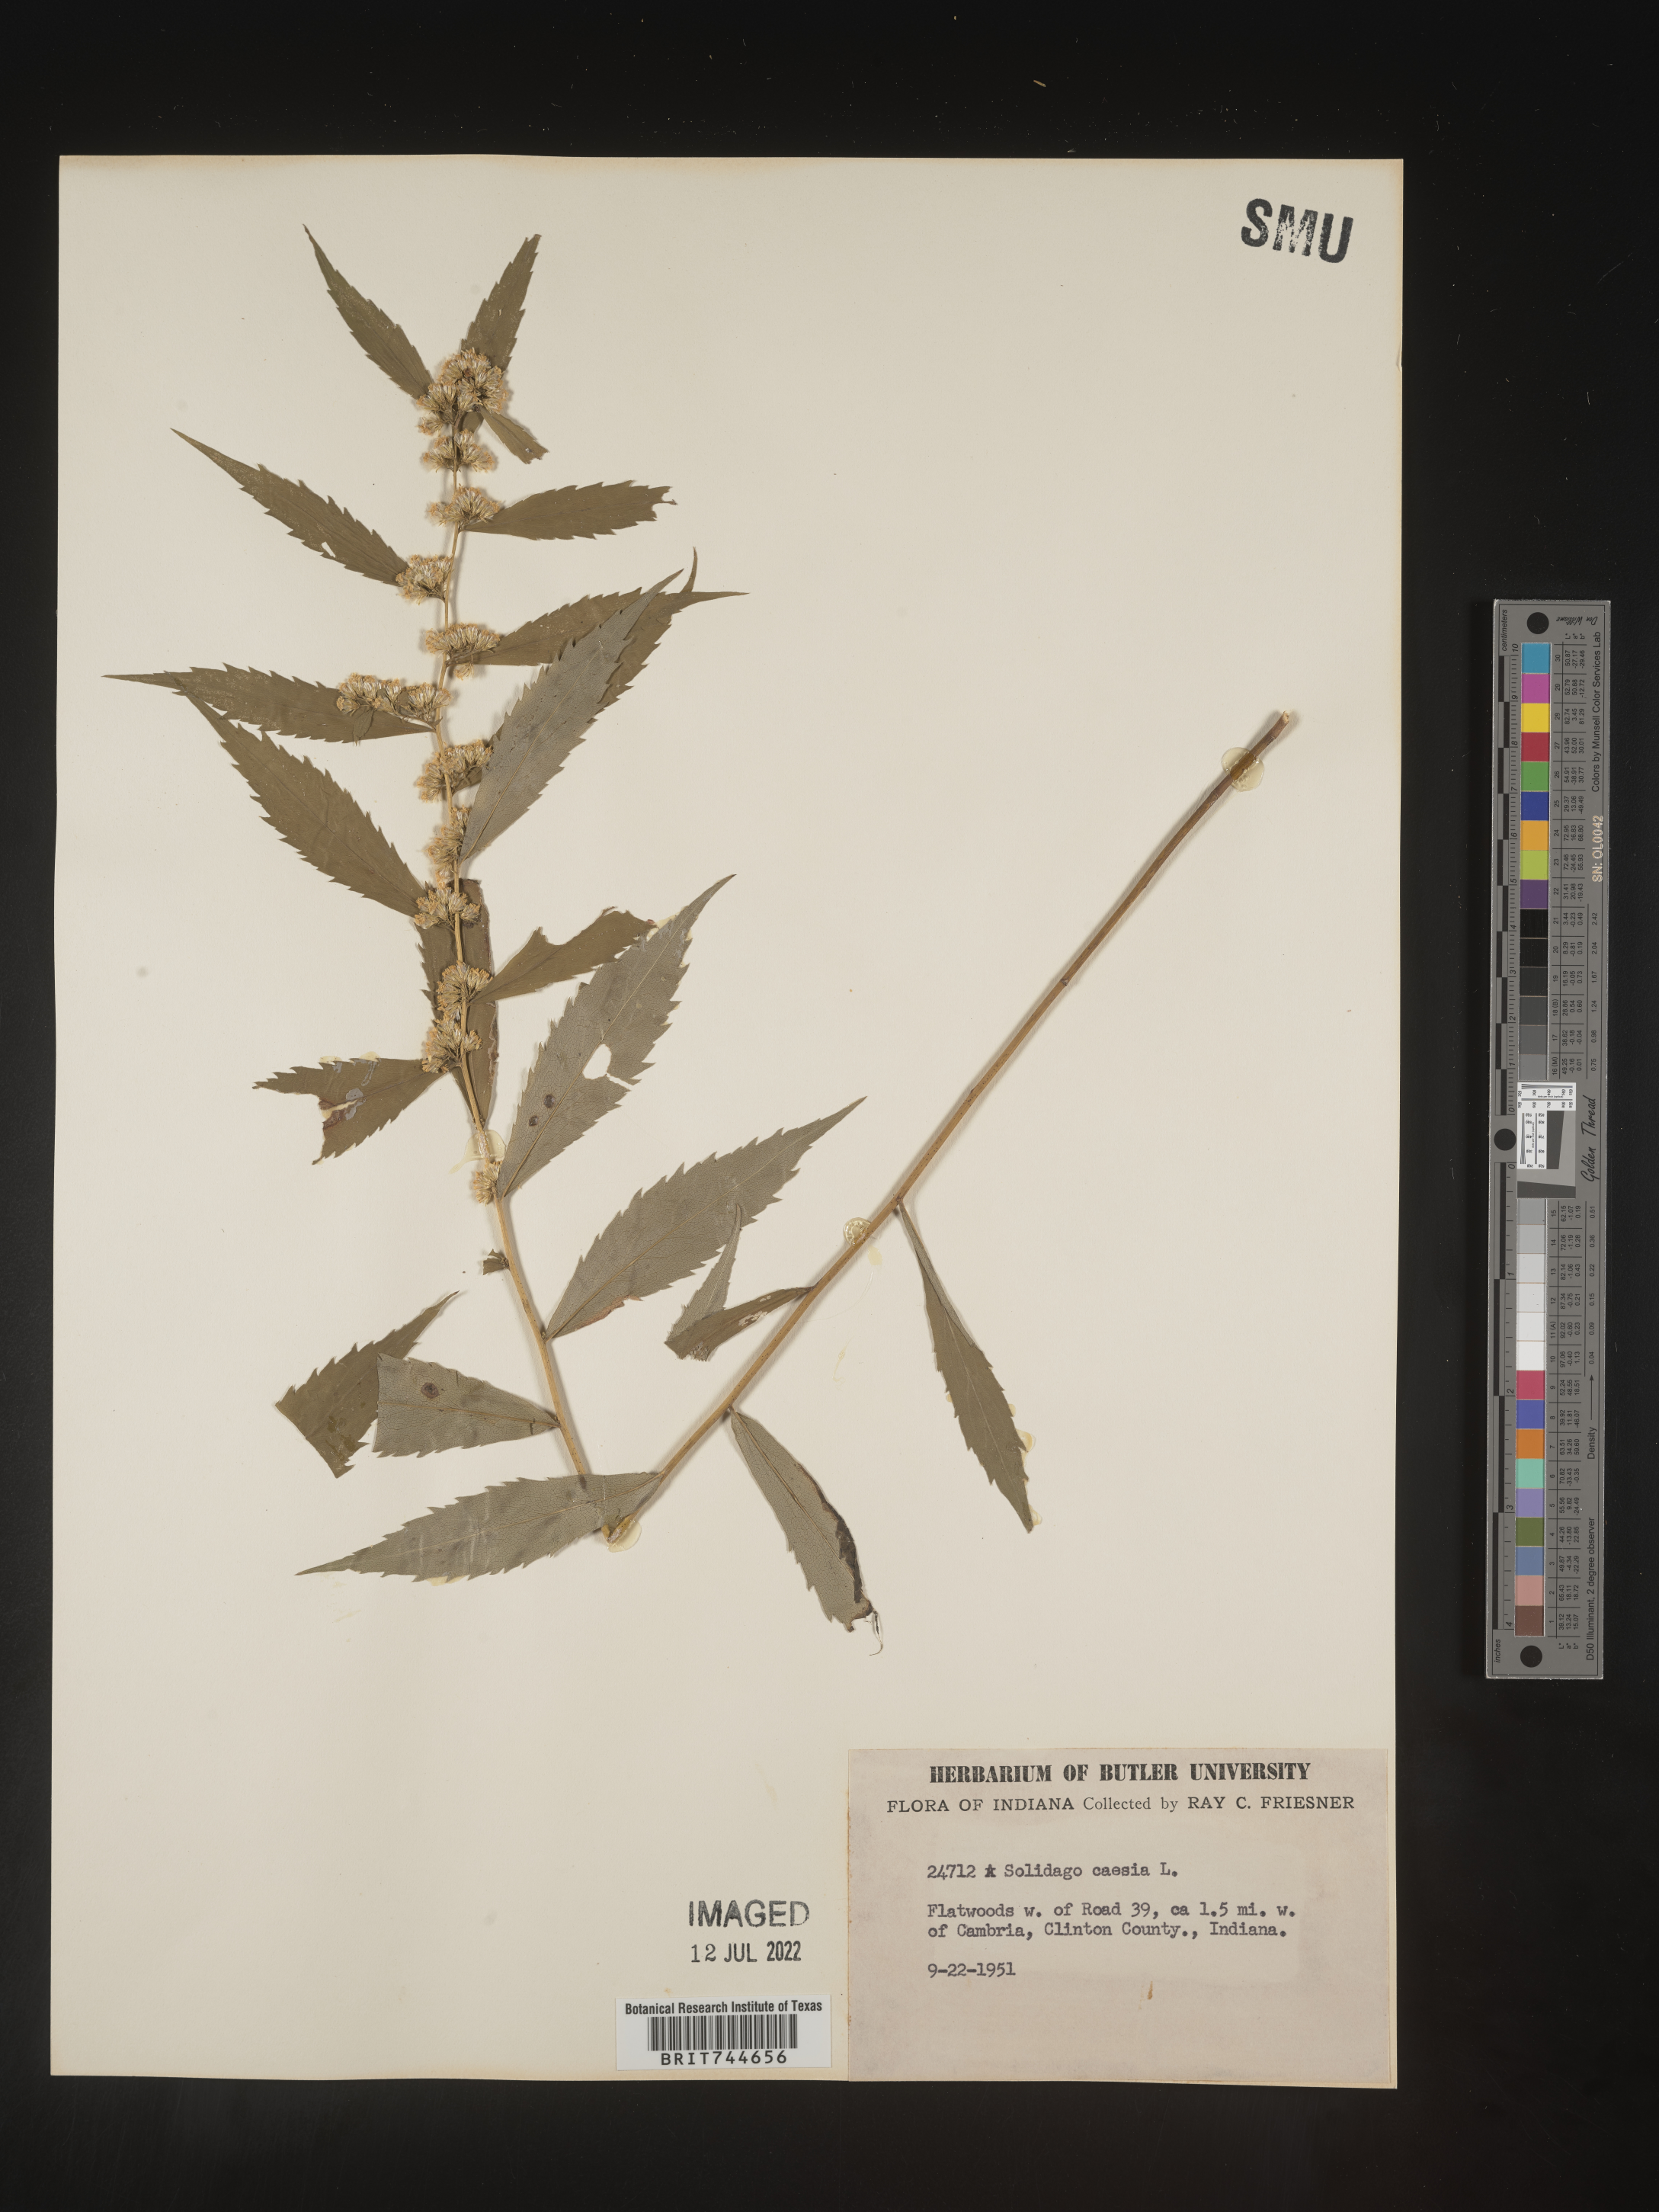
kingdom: Plantae
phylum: Tracheophyta
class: Magnoliopsida
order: Asterales
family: Asteraceae
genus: Solidago
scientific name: Solidago caesia
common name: Woodland goldenrod
